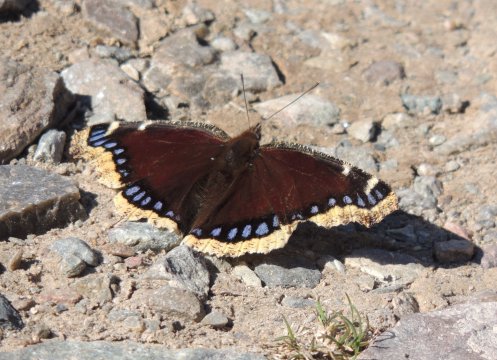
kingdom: Animalia
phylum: Arthropoda
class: Insecta
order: Lepidoptera
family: Nymphalidae
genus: Nymphalis
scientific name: Nymphalis antiopa
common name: Mourning Cloak
